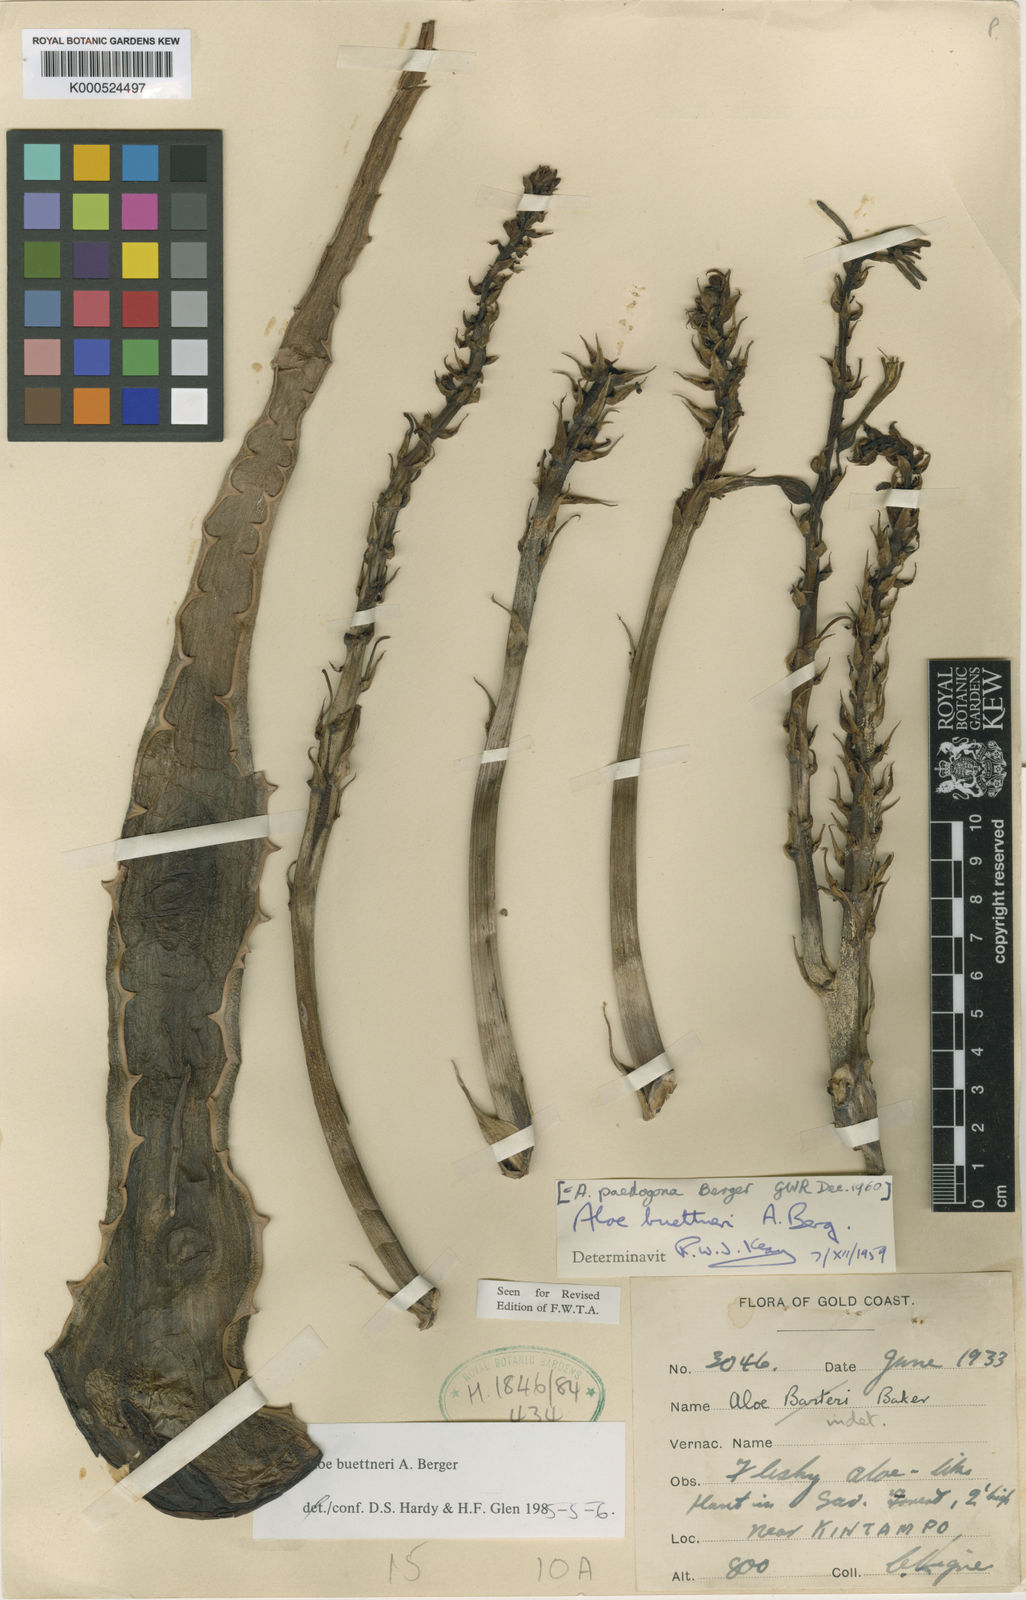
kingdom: Plantae
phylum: Tracheophyta
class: Liliopsida
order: Asparagales
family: Asphodelaceae
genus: Aloe
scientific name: Aloe buettneri
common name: West african aloe
